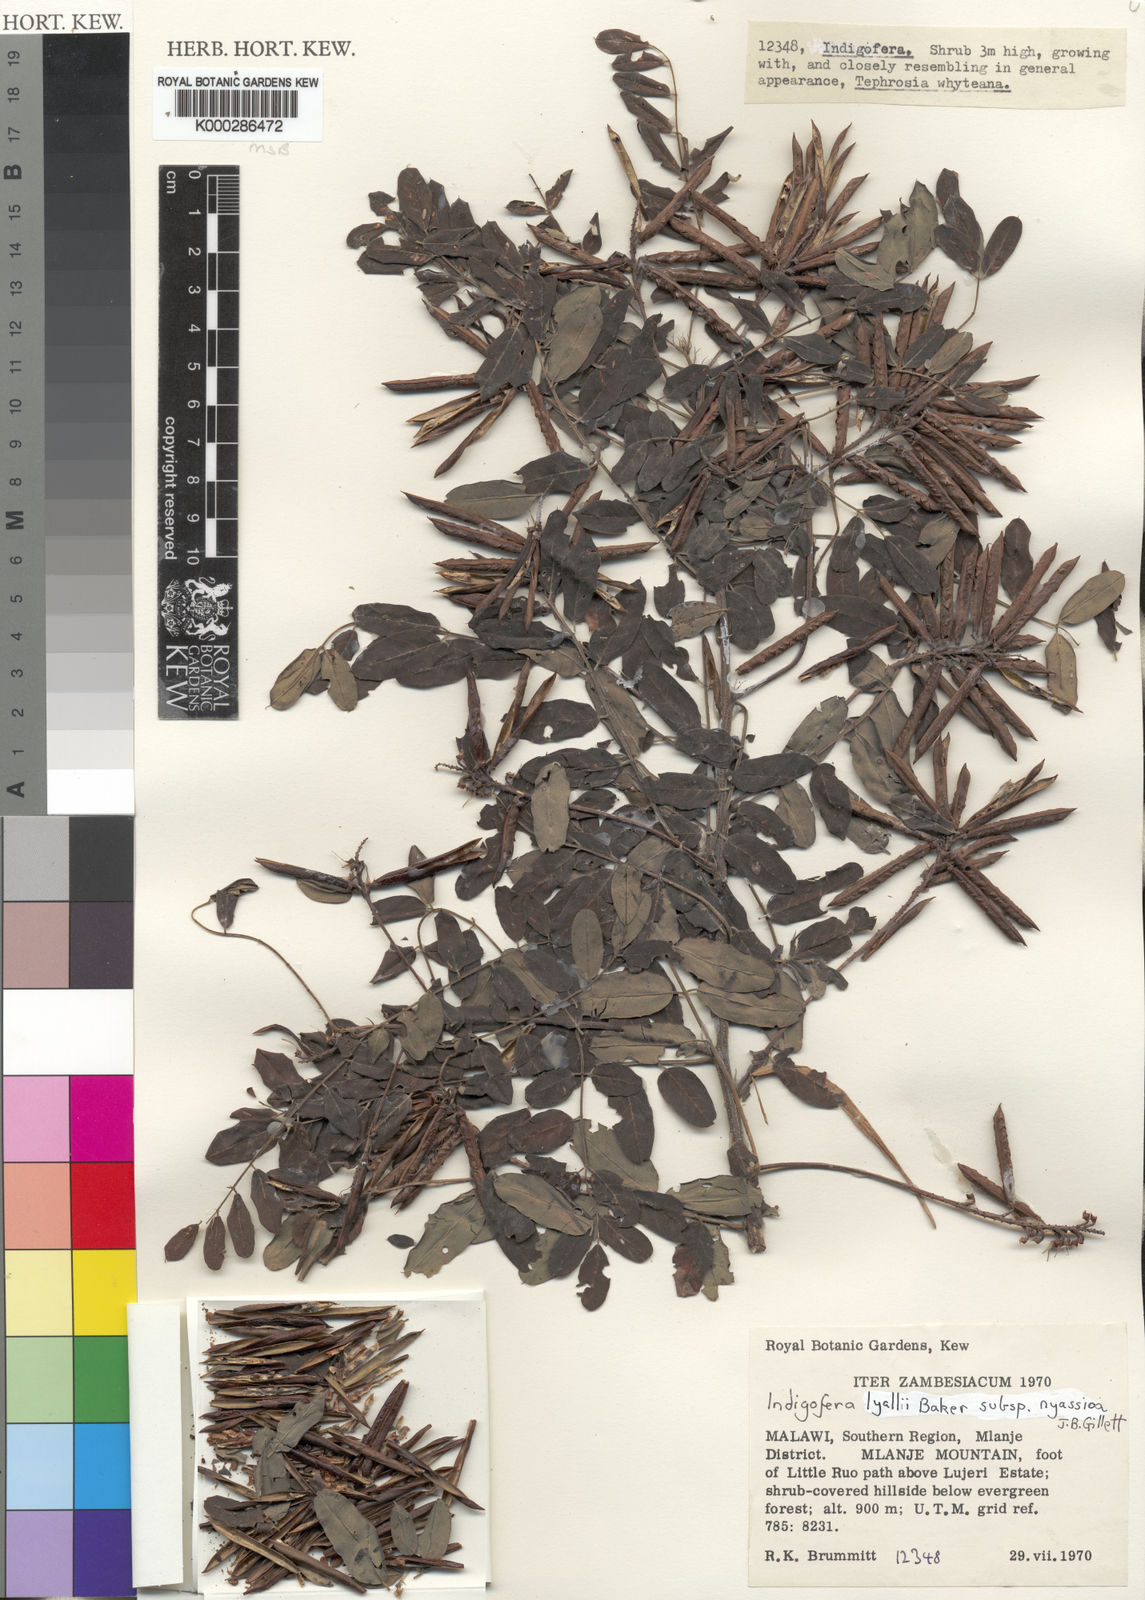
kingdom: Plantae
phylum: Tracheophyta
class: Magnoliopsida
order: Fabales
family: Fabaceae
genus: Indigofera
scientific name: Indigofera lyallii
